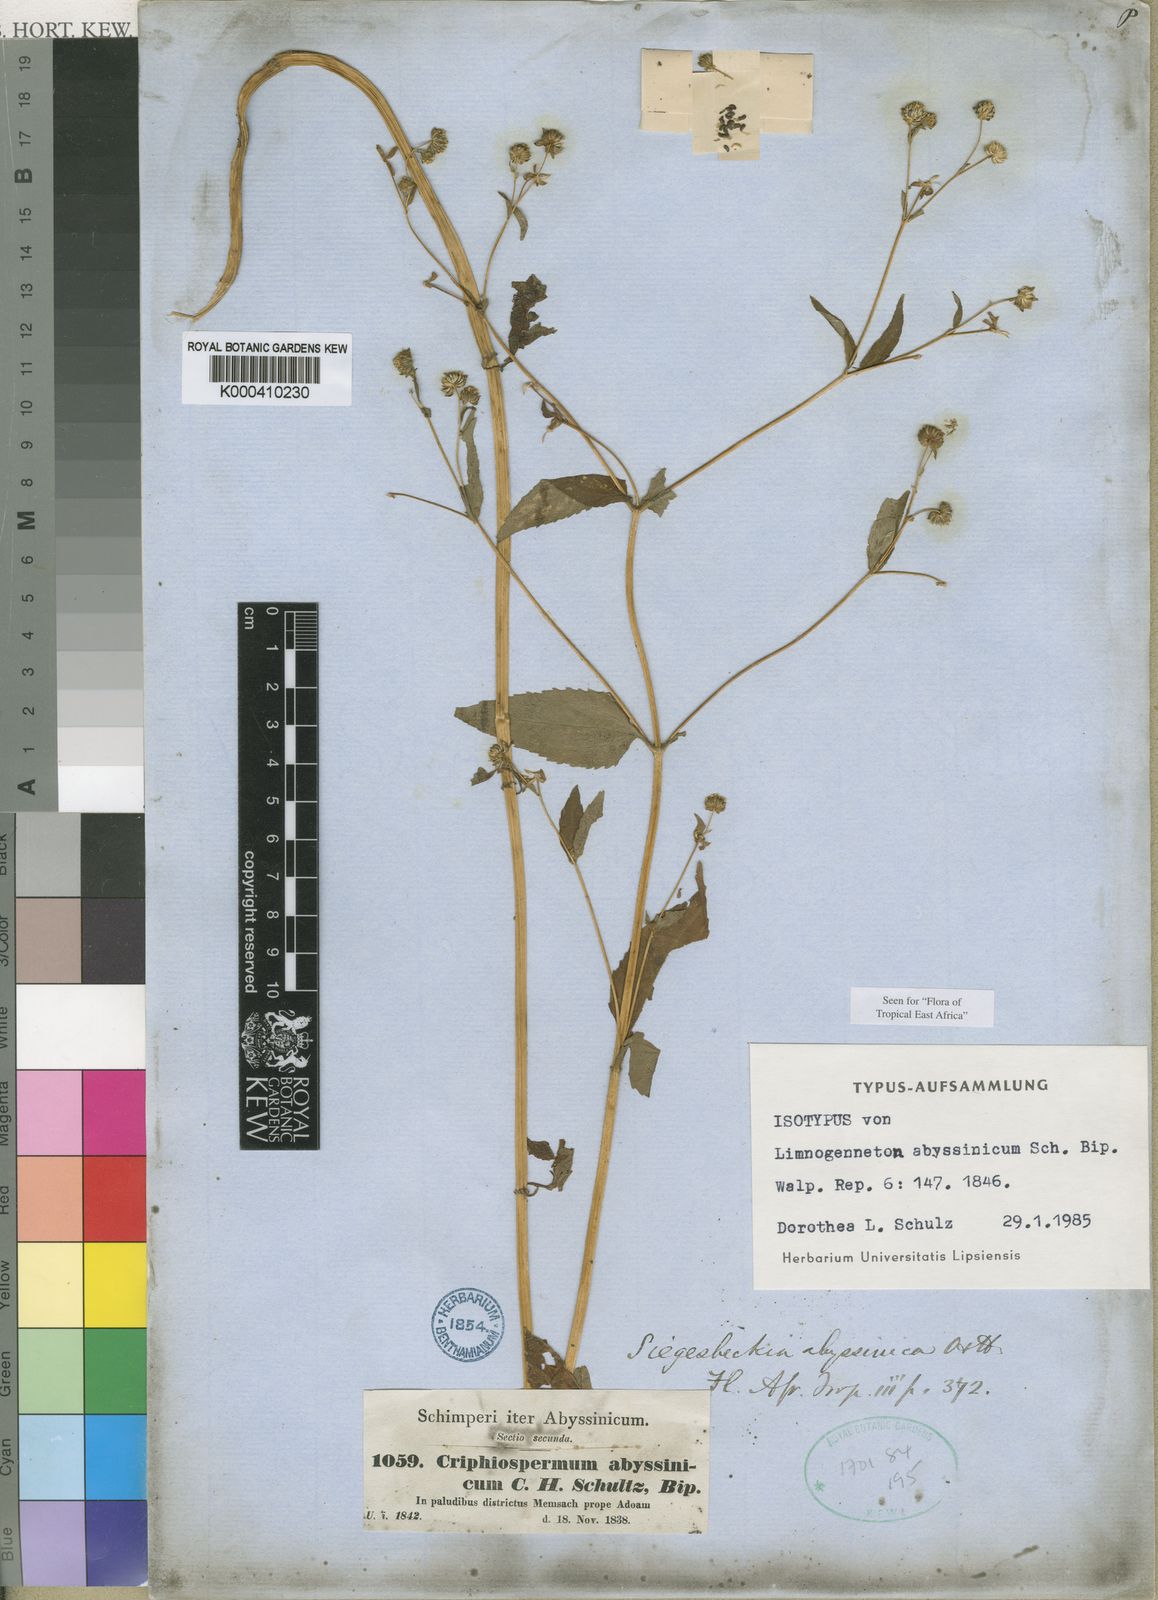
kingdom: Plantae
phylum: Tracheophyta
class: Magnoliopsida
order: Asterales
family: Asteraceae
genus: Micractis
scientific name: Micractis bojeri
